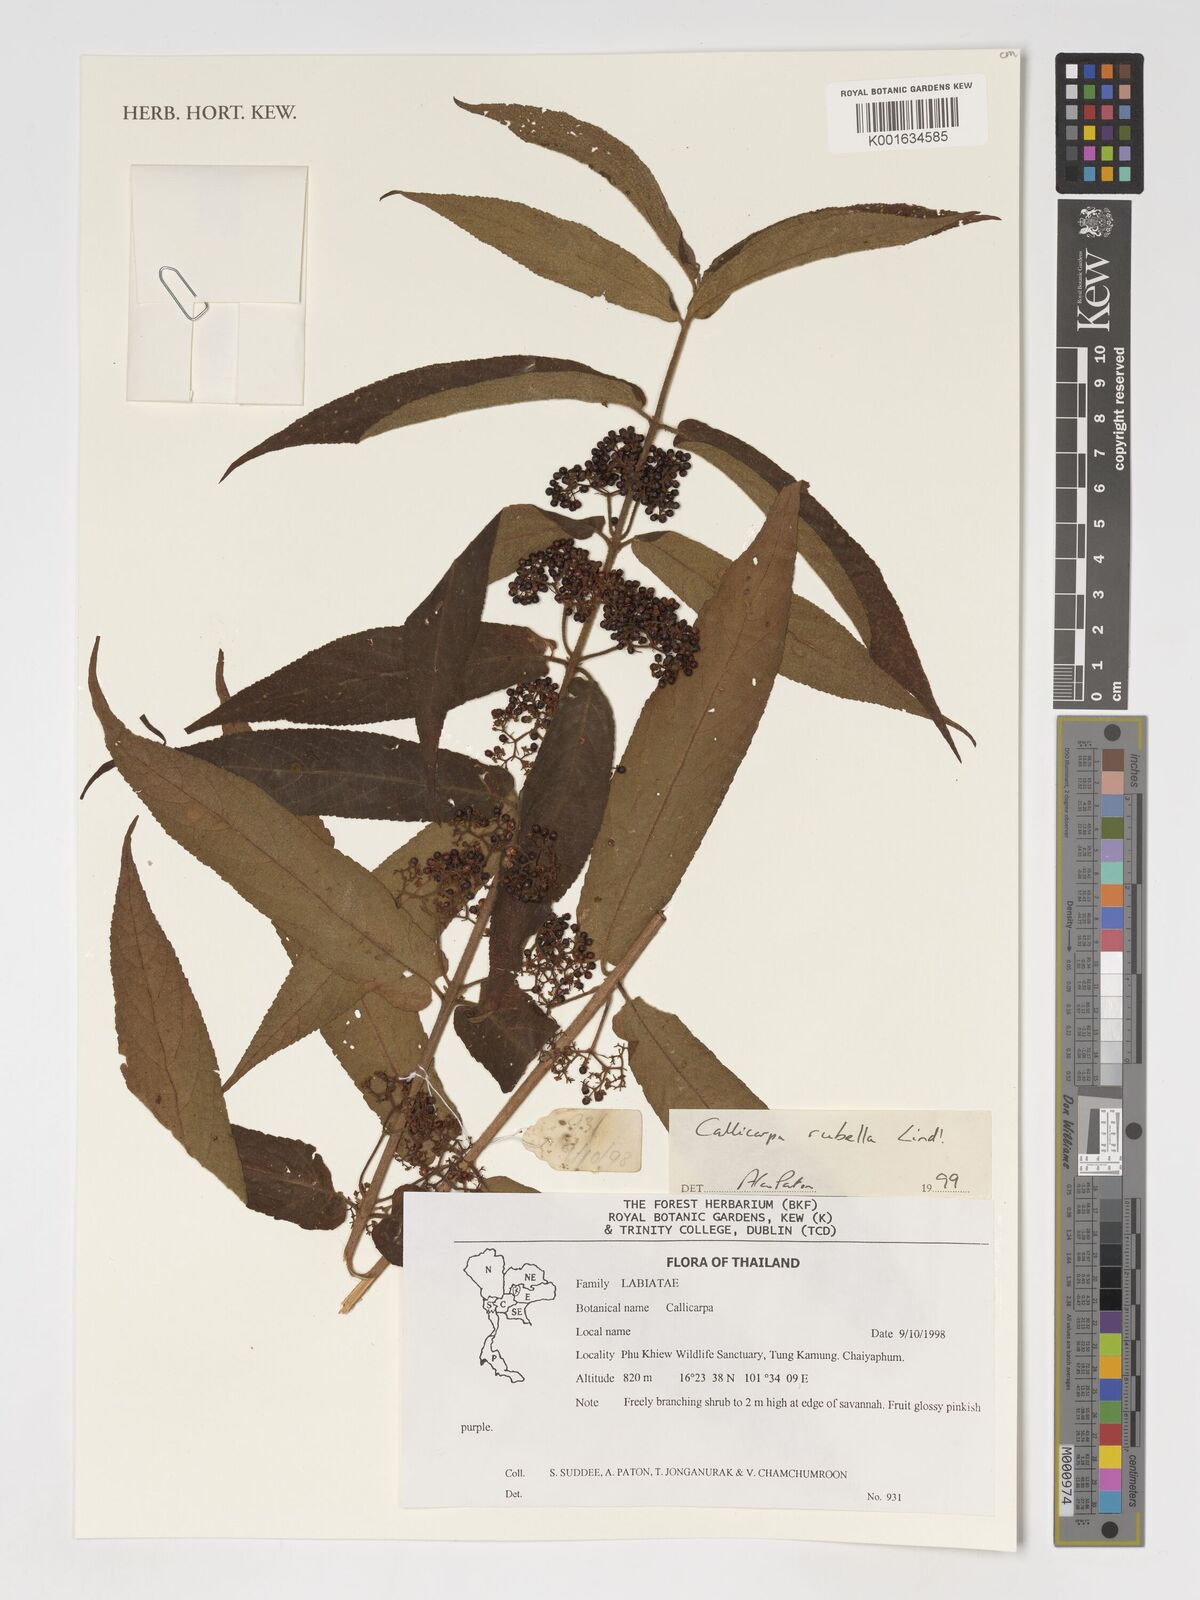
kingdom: Plantae
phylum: Tracheophyta
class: Magnoliopsida
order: Lamiales
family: Lamiaceae
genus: Callicarpa
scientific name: Callicarpa rubella
